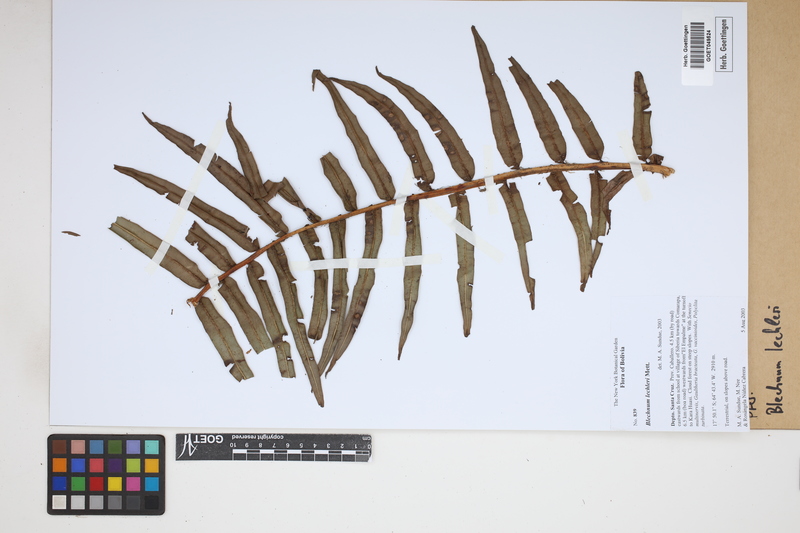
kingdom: Plantae
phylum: Tracheophyta
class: Polypodiopsida
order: Polypodiales
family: Blechnaceae
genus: Parablechnum
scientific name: Parablechnum lechleri
